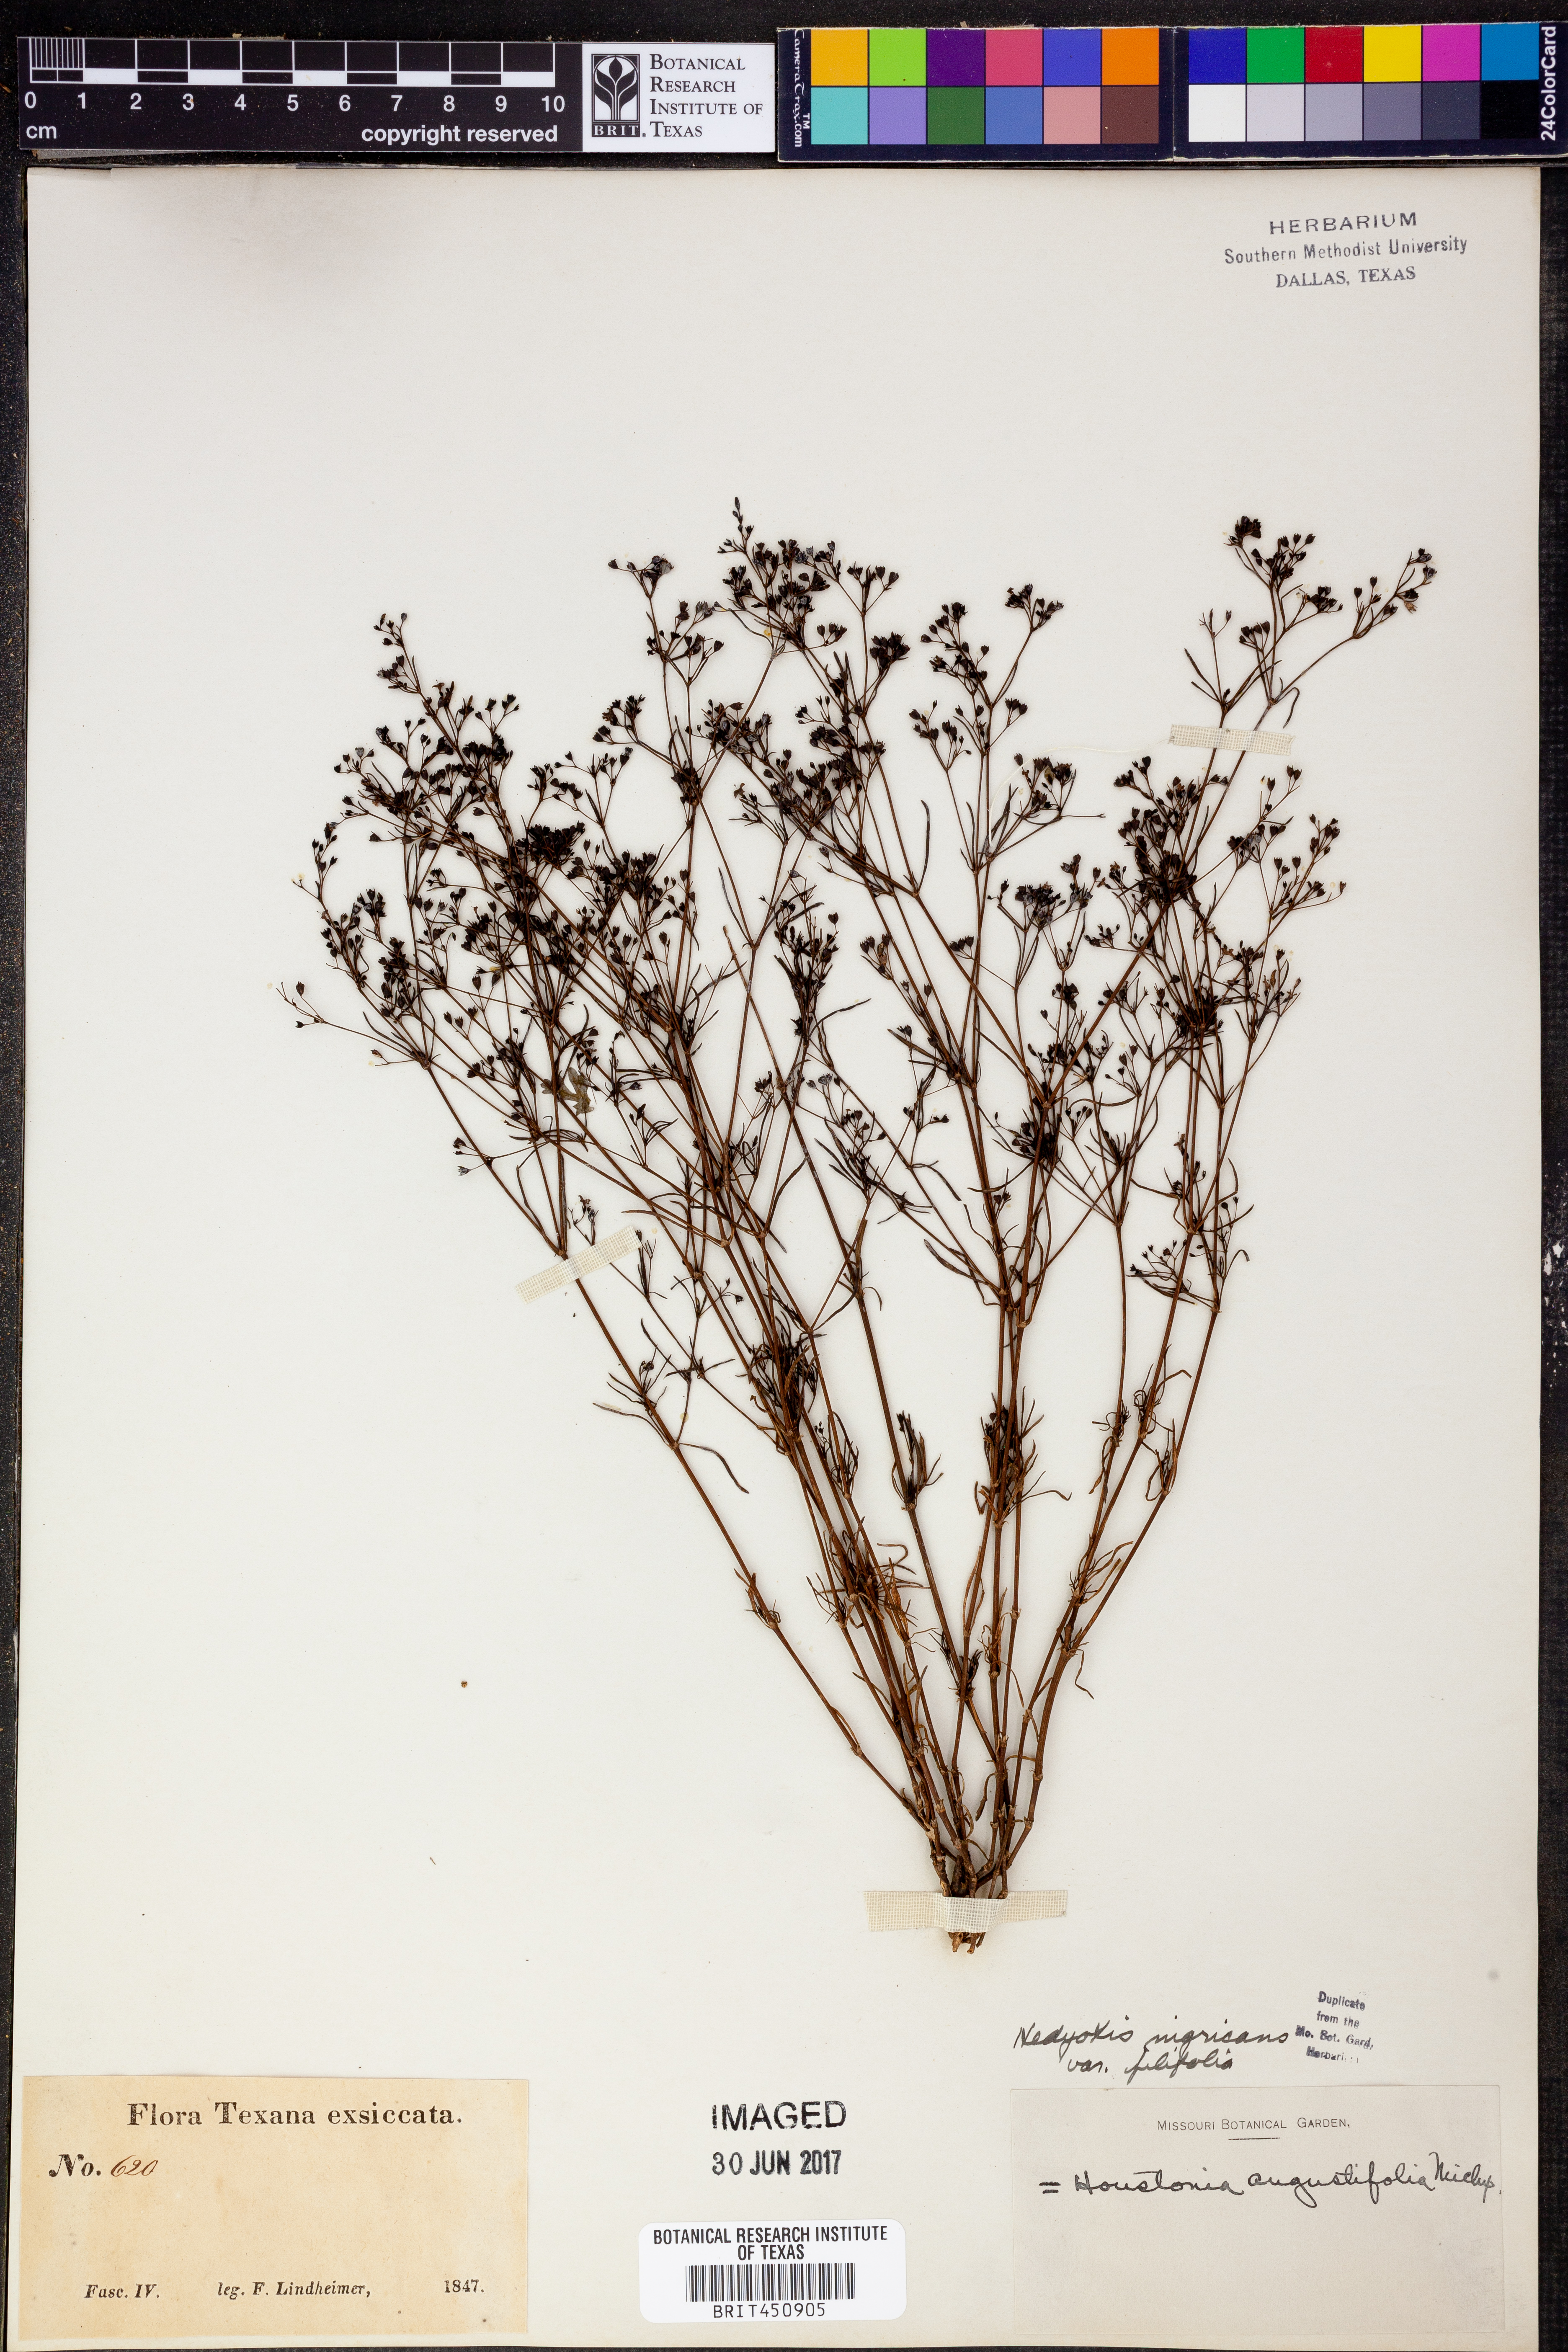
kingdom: Plantae
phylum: Tracheophyta
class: Magnoliopsida
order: Gentianales
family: Rubiaceae
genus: Stenaria
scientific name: Stenaria nigricans
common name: Diamondflowers
